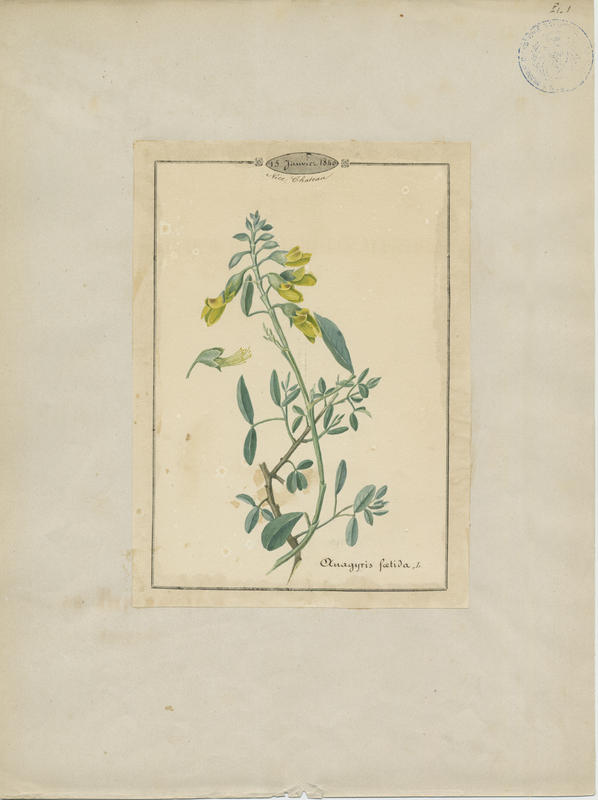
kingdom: Plantae
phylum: Tracheophyta
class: Magnoliopsida
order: Fabales
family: Fabaceae
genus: Anagyris
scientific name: Anagyris foetida
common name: Stinking bean trefoil
